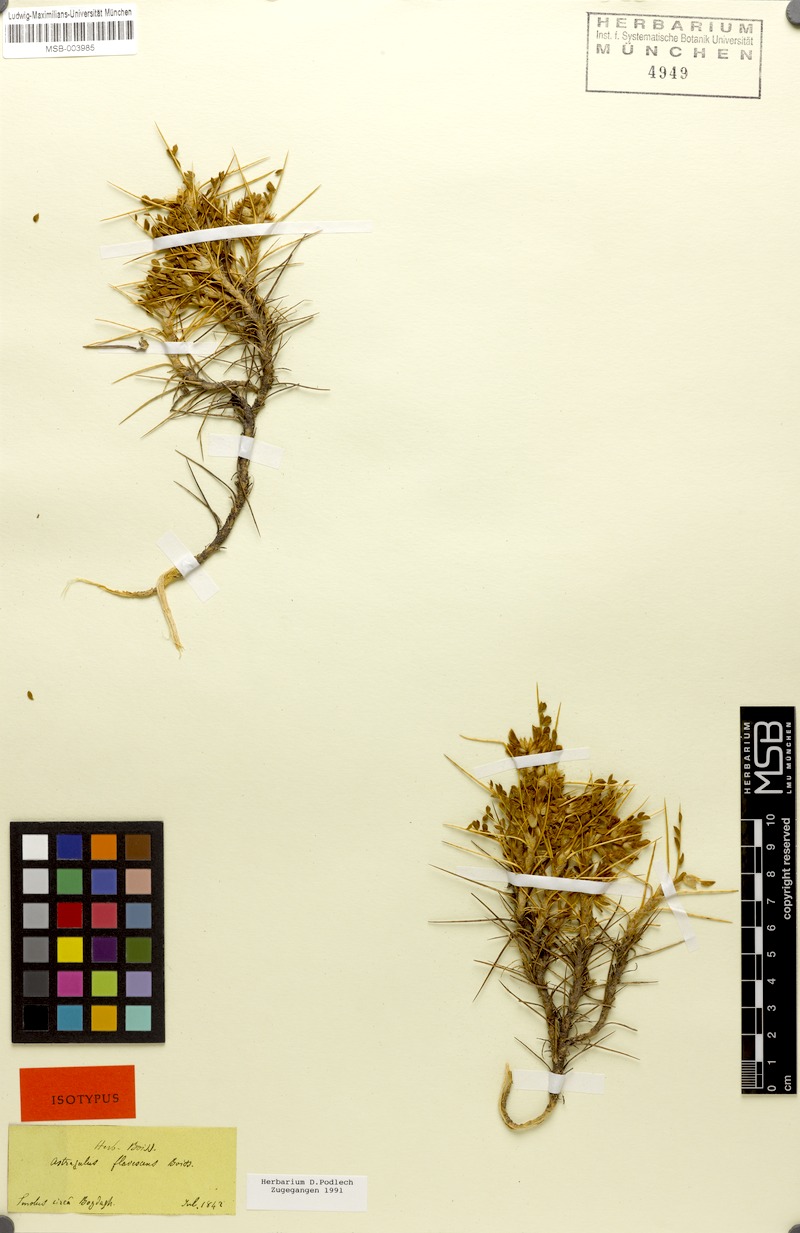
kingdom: Plantae
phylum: Tracheophyta
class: Magnoliopsida
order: Fabales
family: Fabaceae
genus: Astragalus
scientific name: Astragalus flavescens
